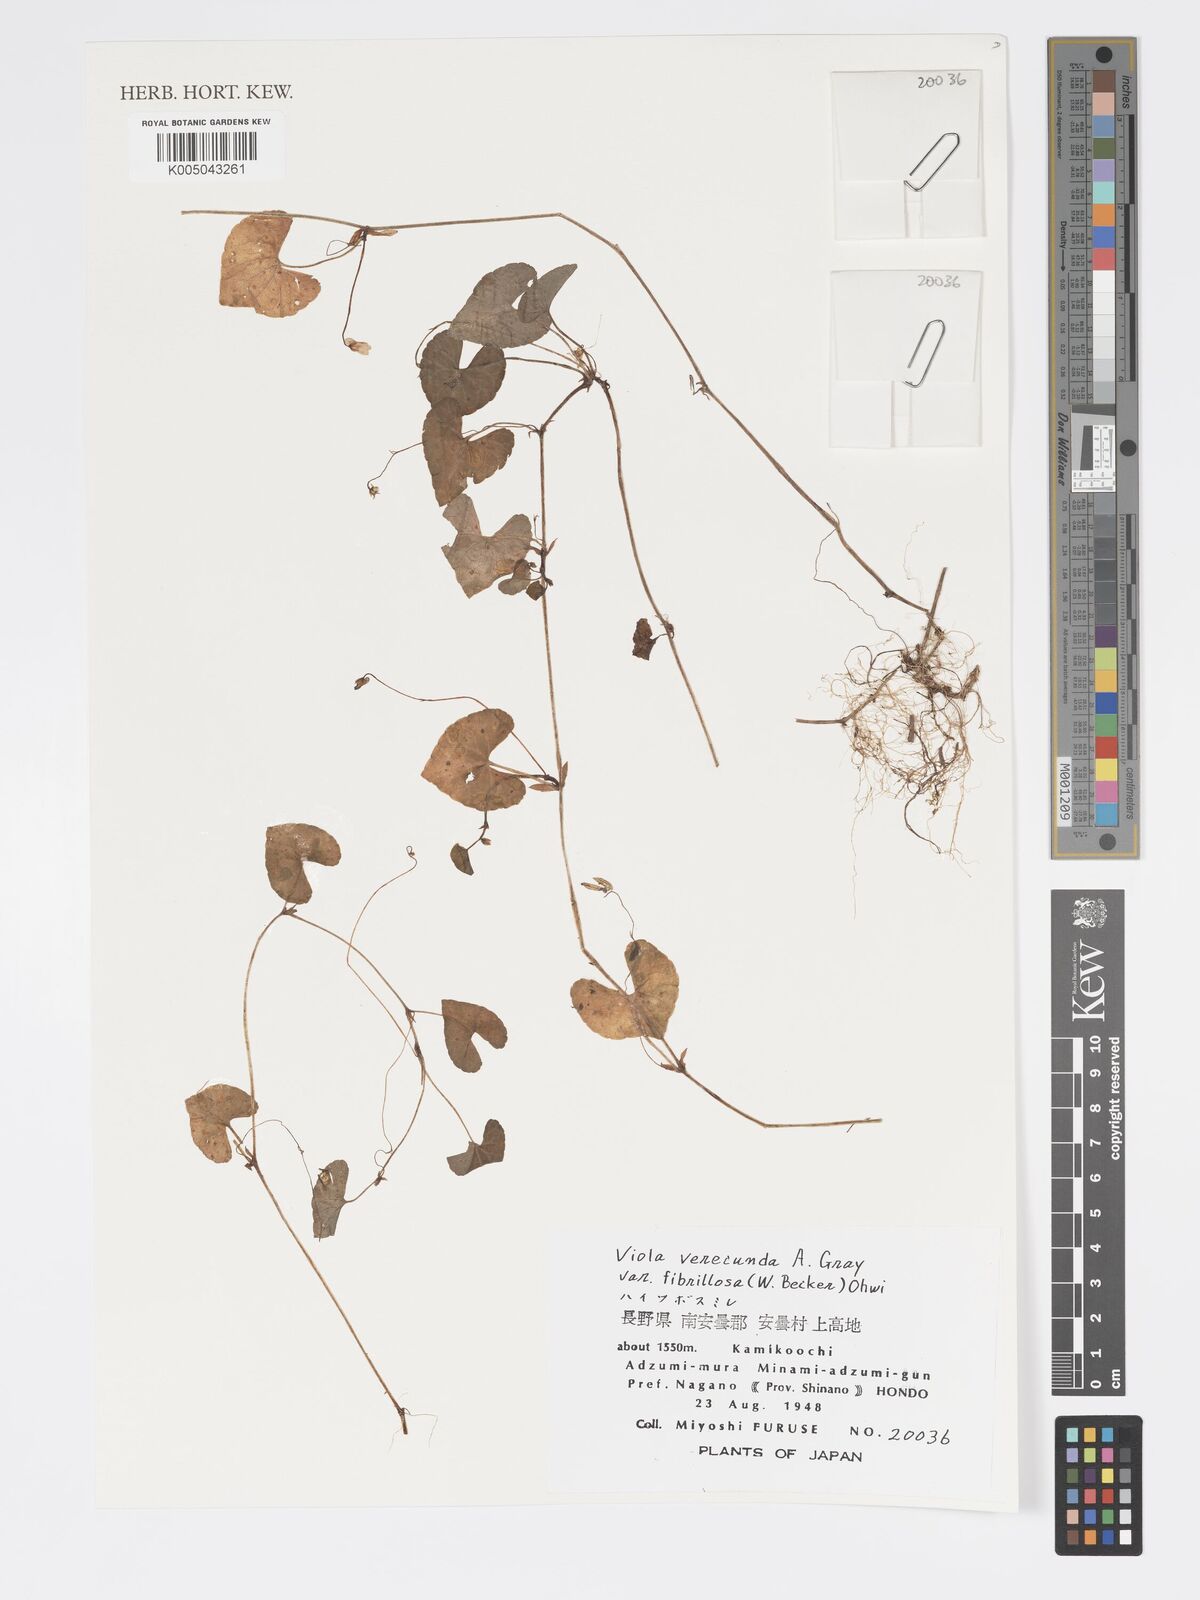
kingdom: Plantae
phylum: Tracheophyta
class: Magnoliopsida
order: Malpighiales
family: Violaceae
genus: Viola
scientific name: Viola hamiltoniana
